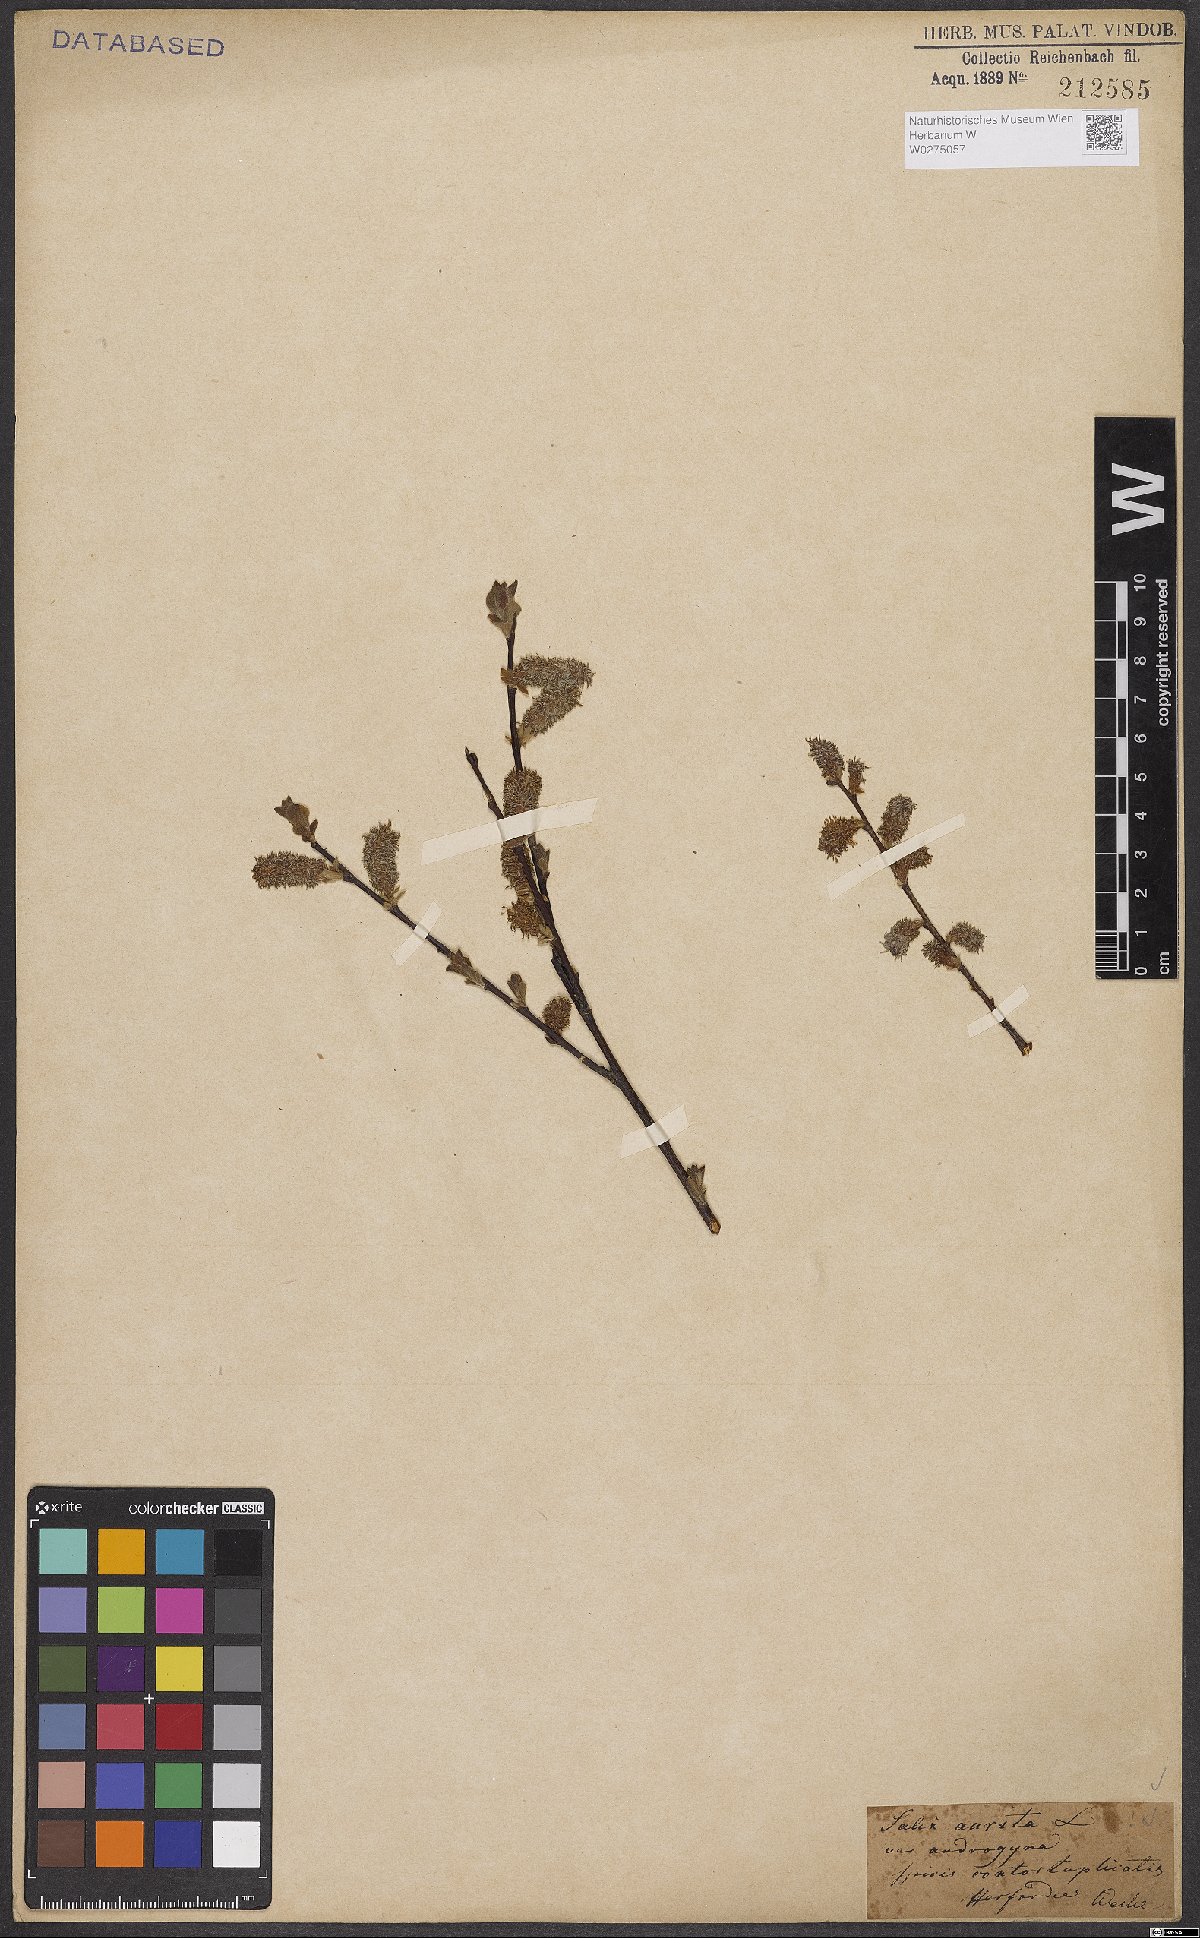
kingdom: Plantae
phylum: Tracheophyta
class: Magnoliopsida
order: Malpighiales
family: Salicaceae
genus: Salix
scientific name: Salix aurita
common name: Eared willow
